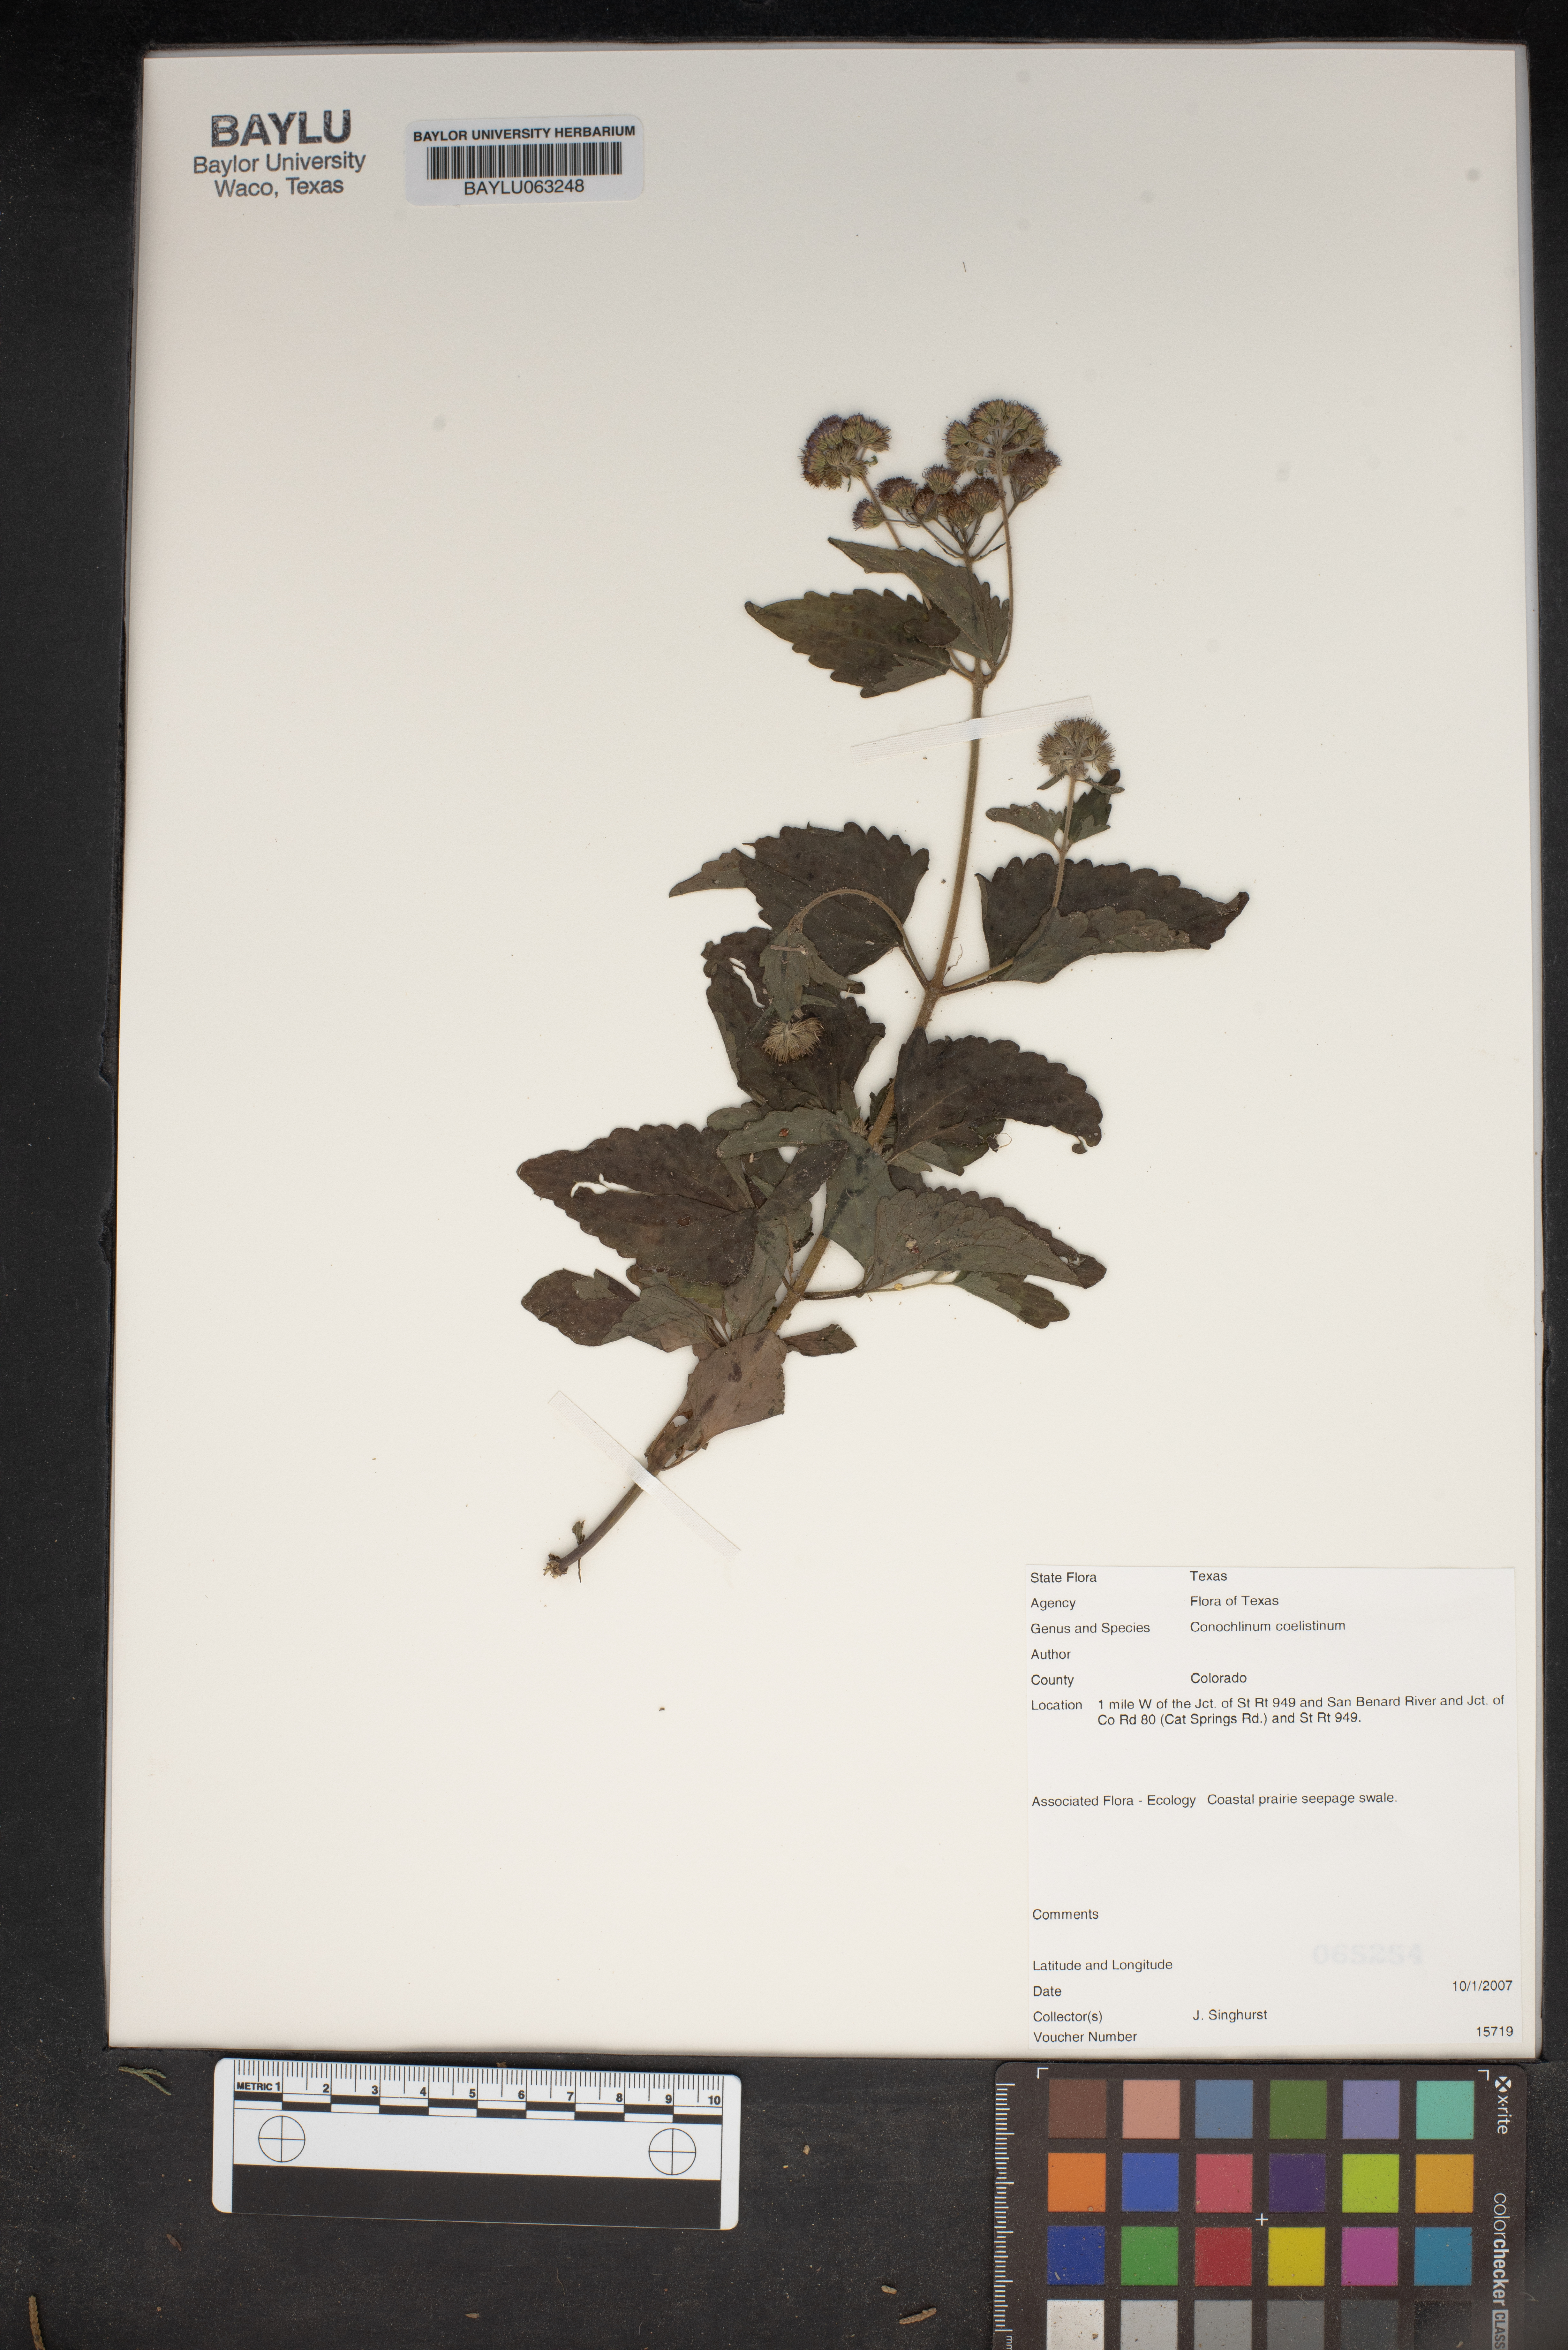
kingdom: Plantae
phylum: Tracheophyta
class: Magnoliopsida
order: Asterales
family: Asteraceae
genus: Conoclinium
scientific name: Conoclinium coelestinum
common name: Blue mistflower
